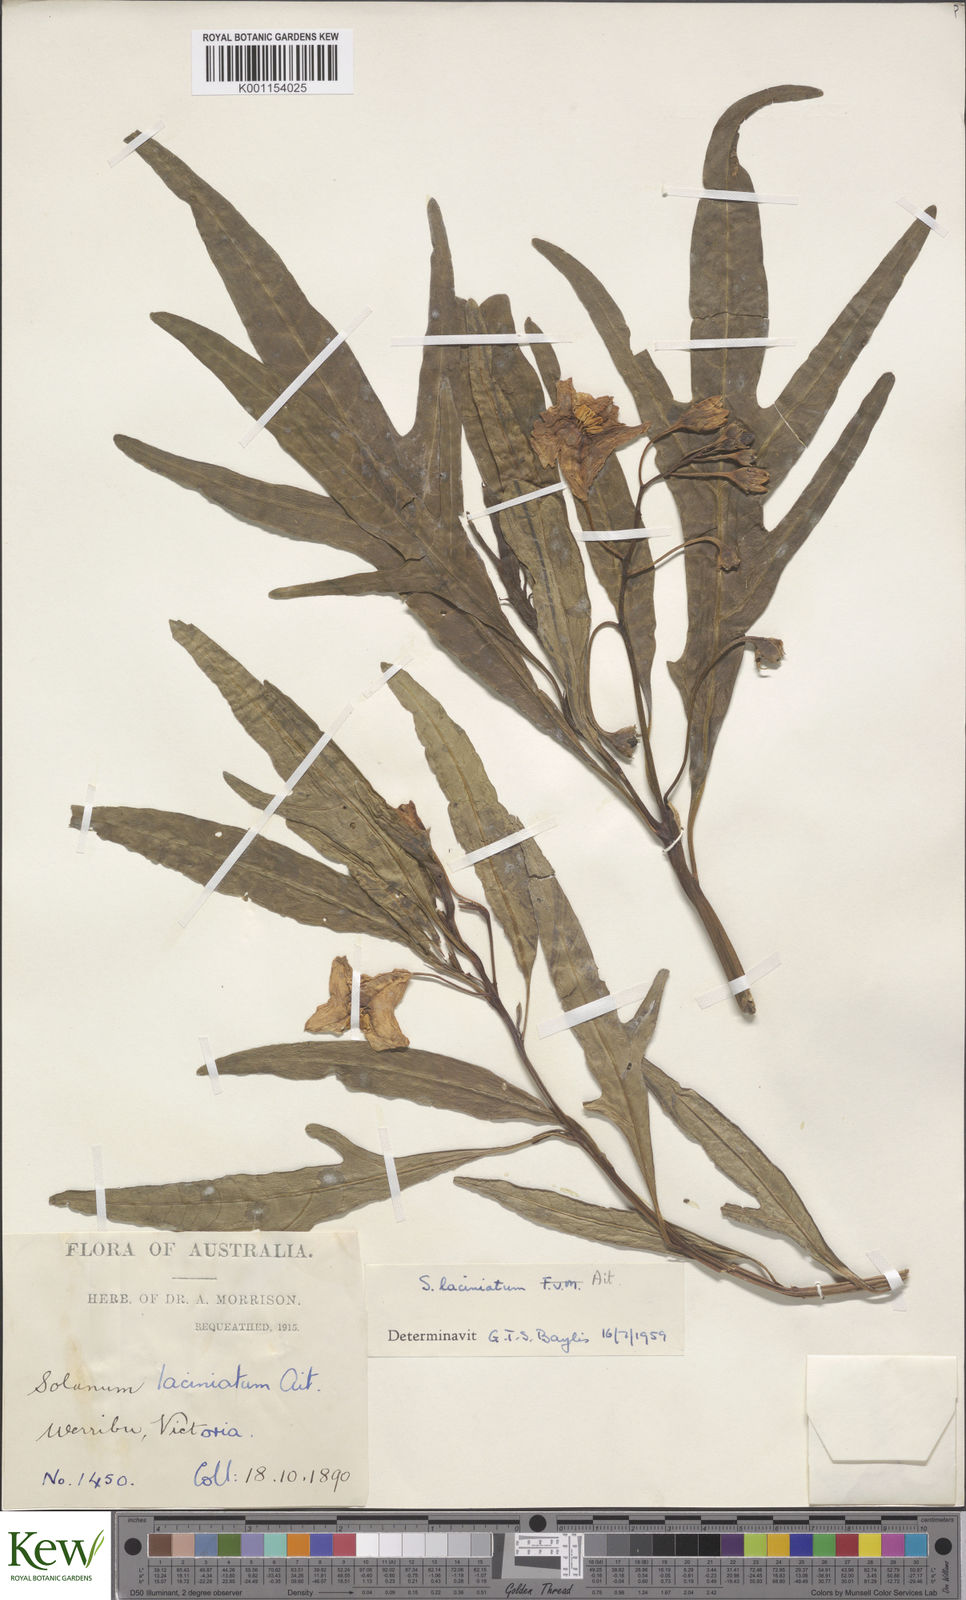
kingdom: Plantae
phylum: Tracheophyta
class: Magnoliopsida
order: Solanales
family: Solanaceae
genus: Solanum
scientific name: Solanum laciniatum
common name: Kangaroo-apple
